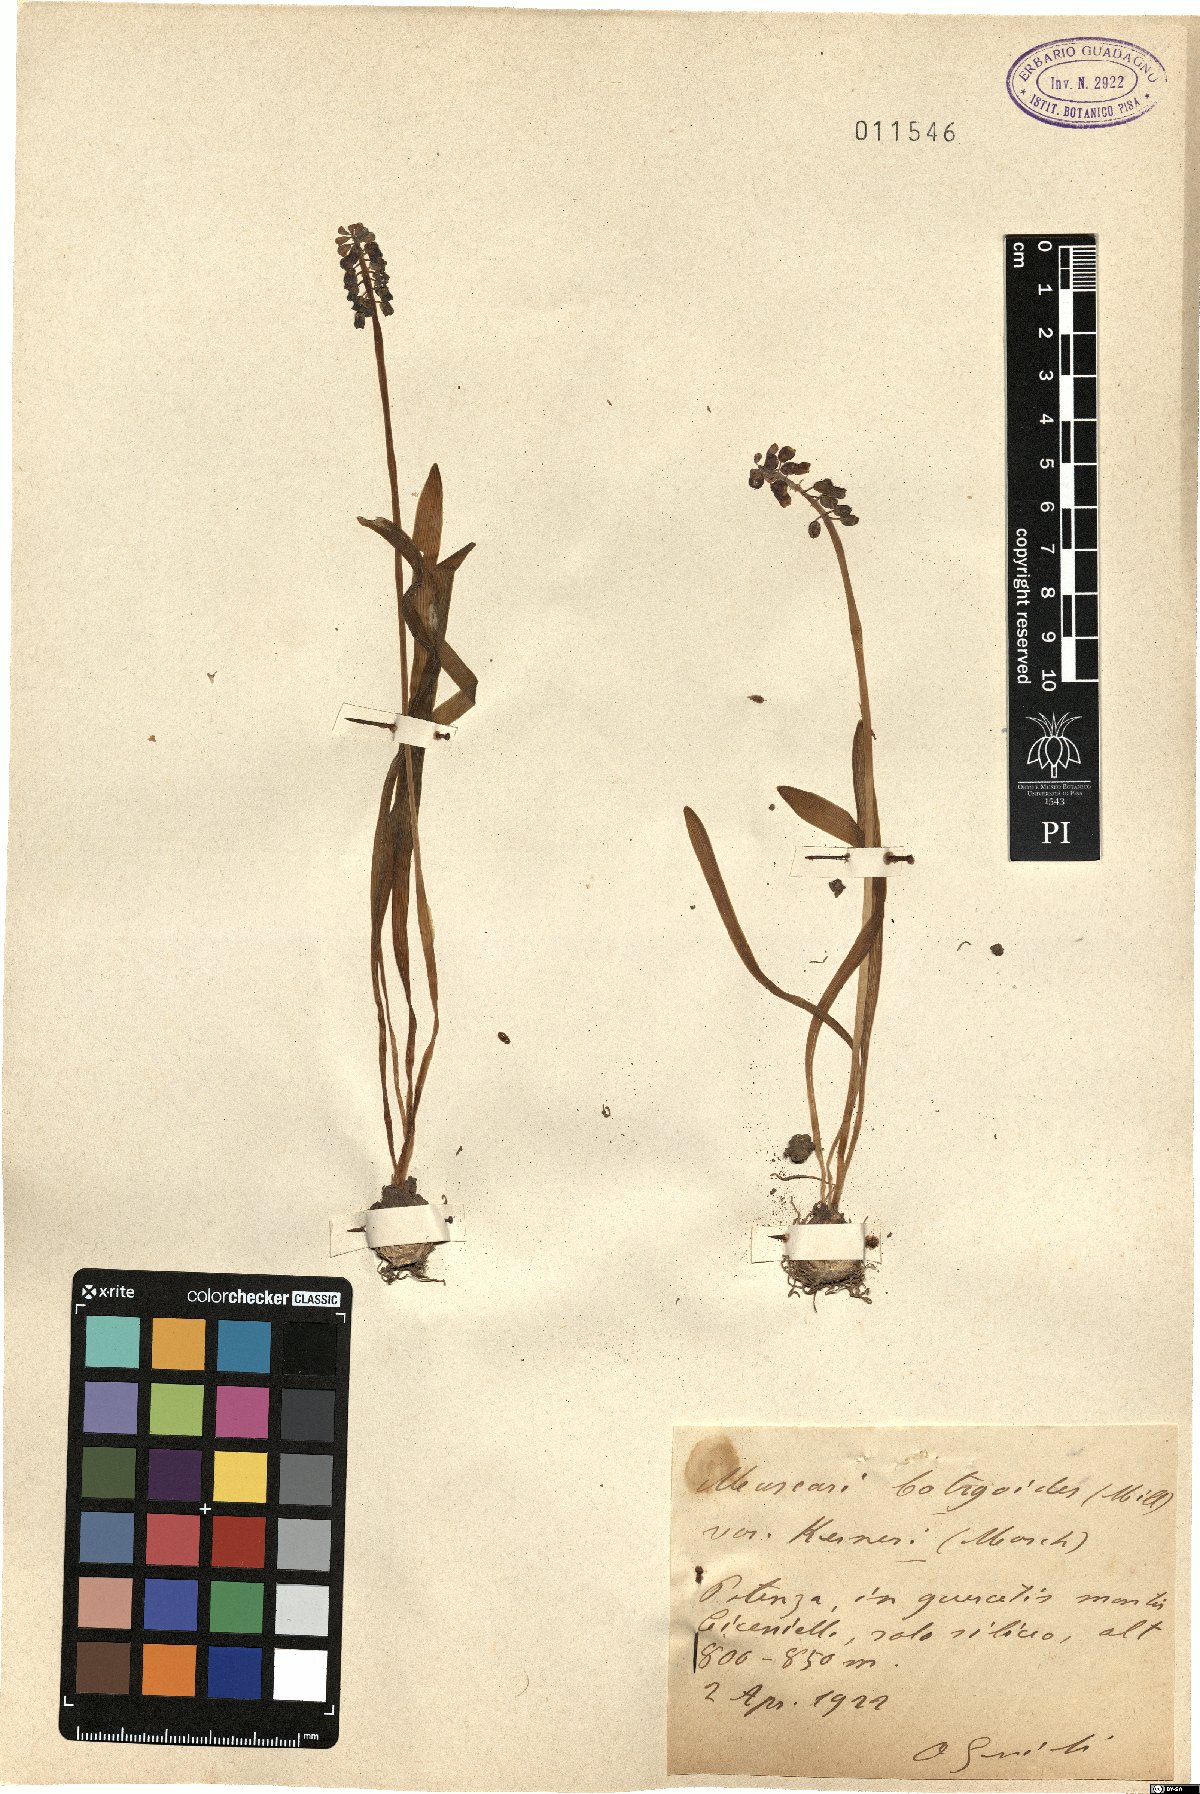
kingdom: Plantae
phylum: Tracheophyta
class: Liliopsida
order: Asparagales
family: Asparagaceae
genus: Muscari
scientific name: Muscari botryoides
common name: Compact grape-hyacinth
